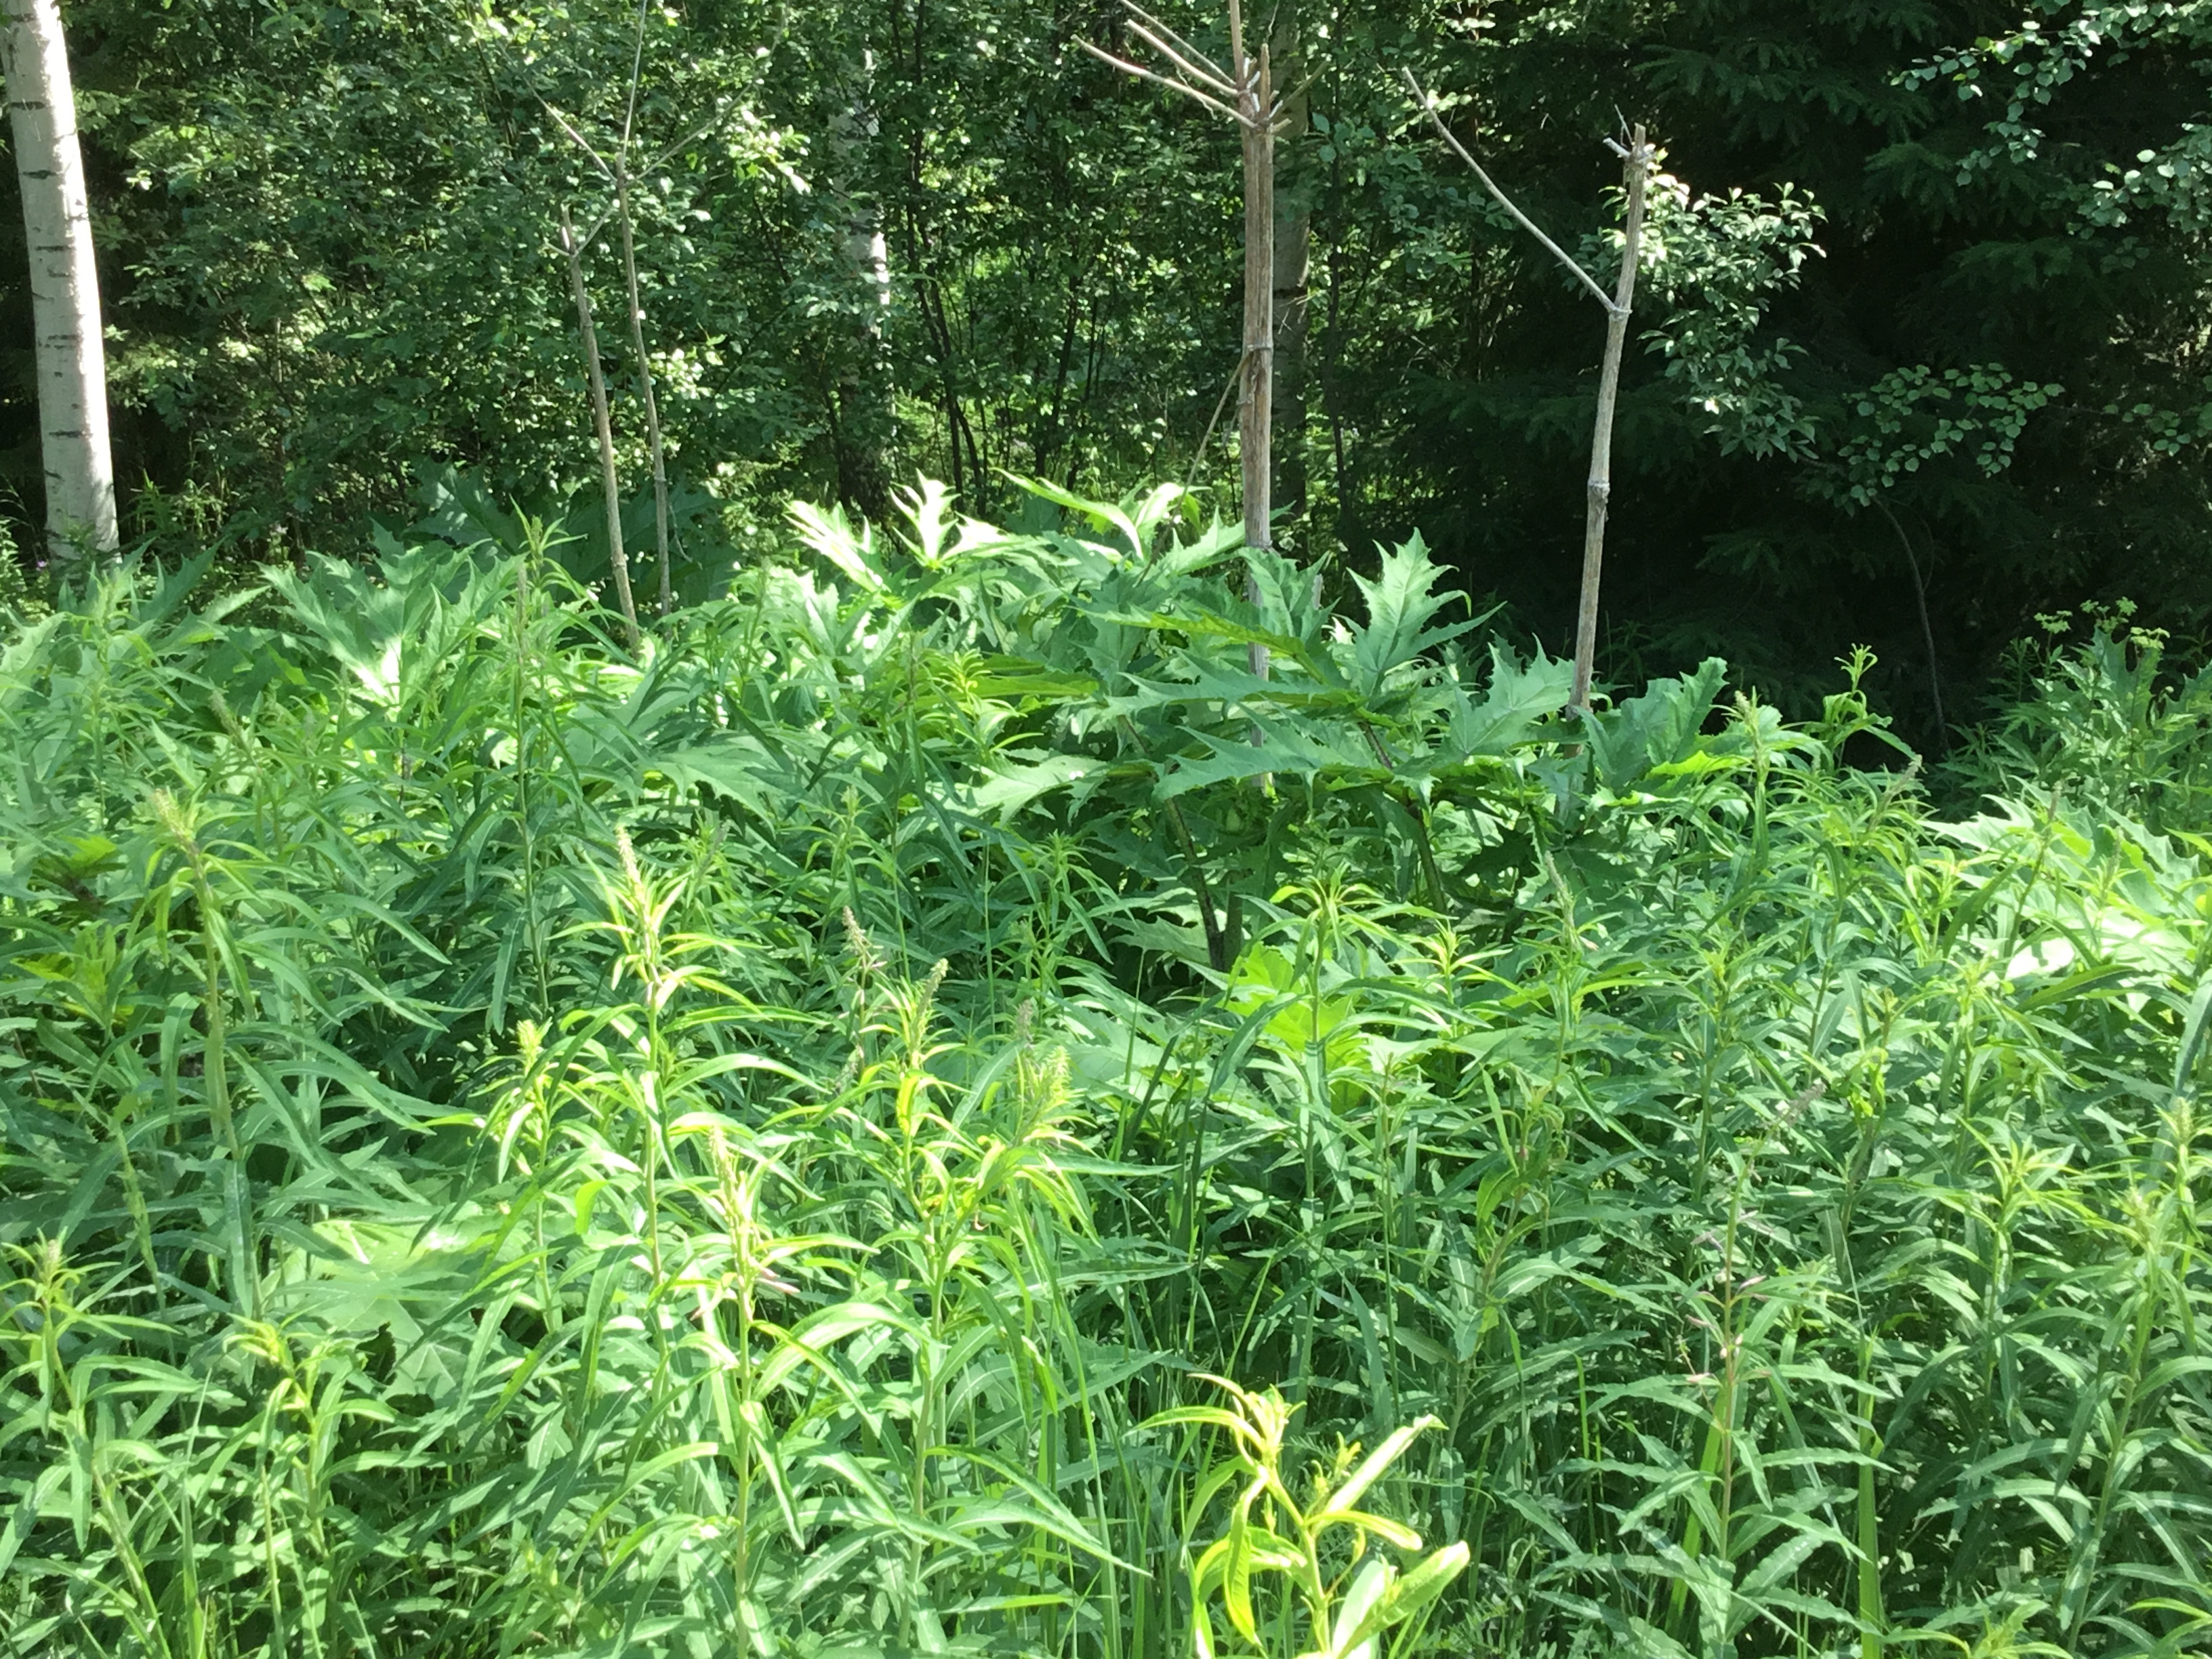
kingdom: Plantae
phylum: Tracheophyta
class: Magnoliopsida
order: Apiales
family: Apiaceae
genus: Heracleum
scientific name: Heracleum
